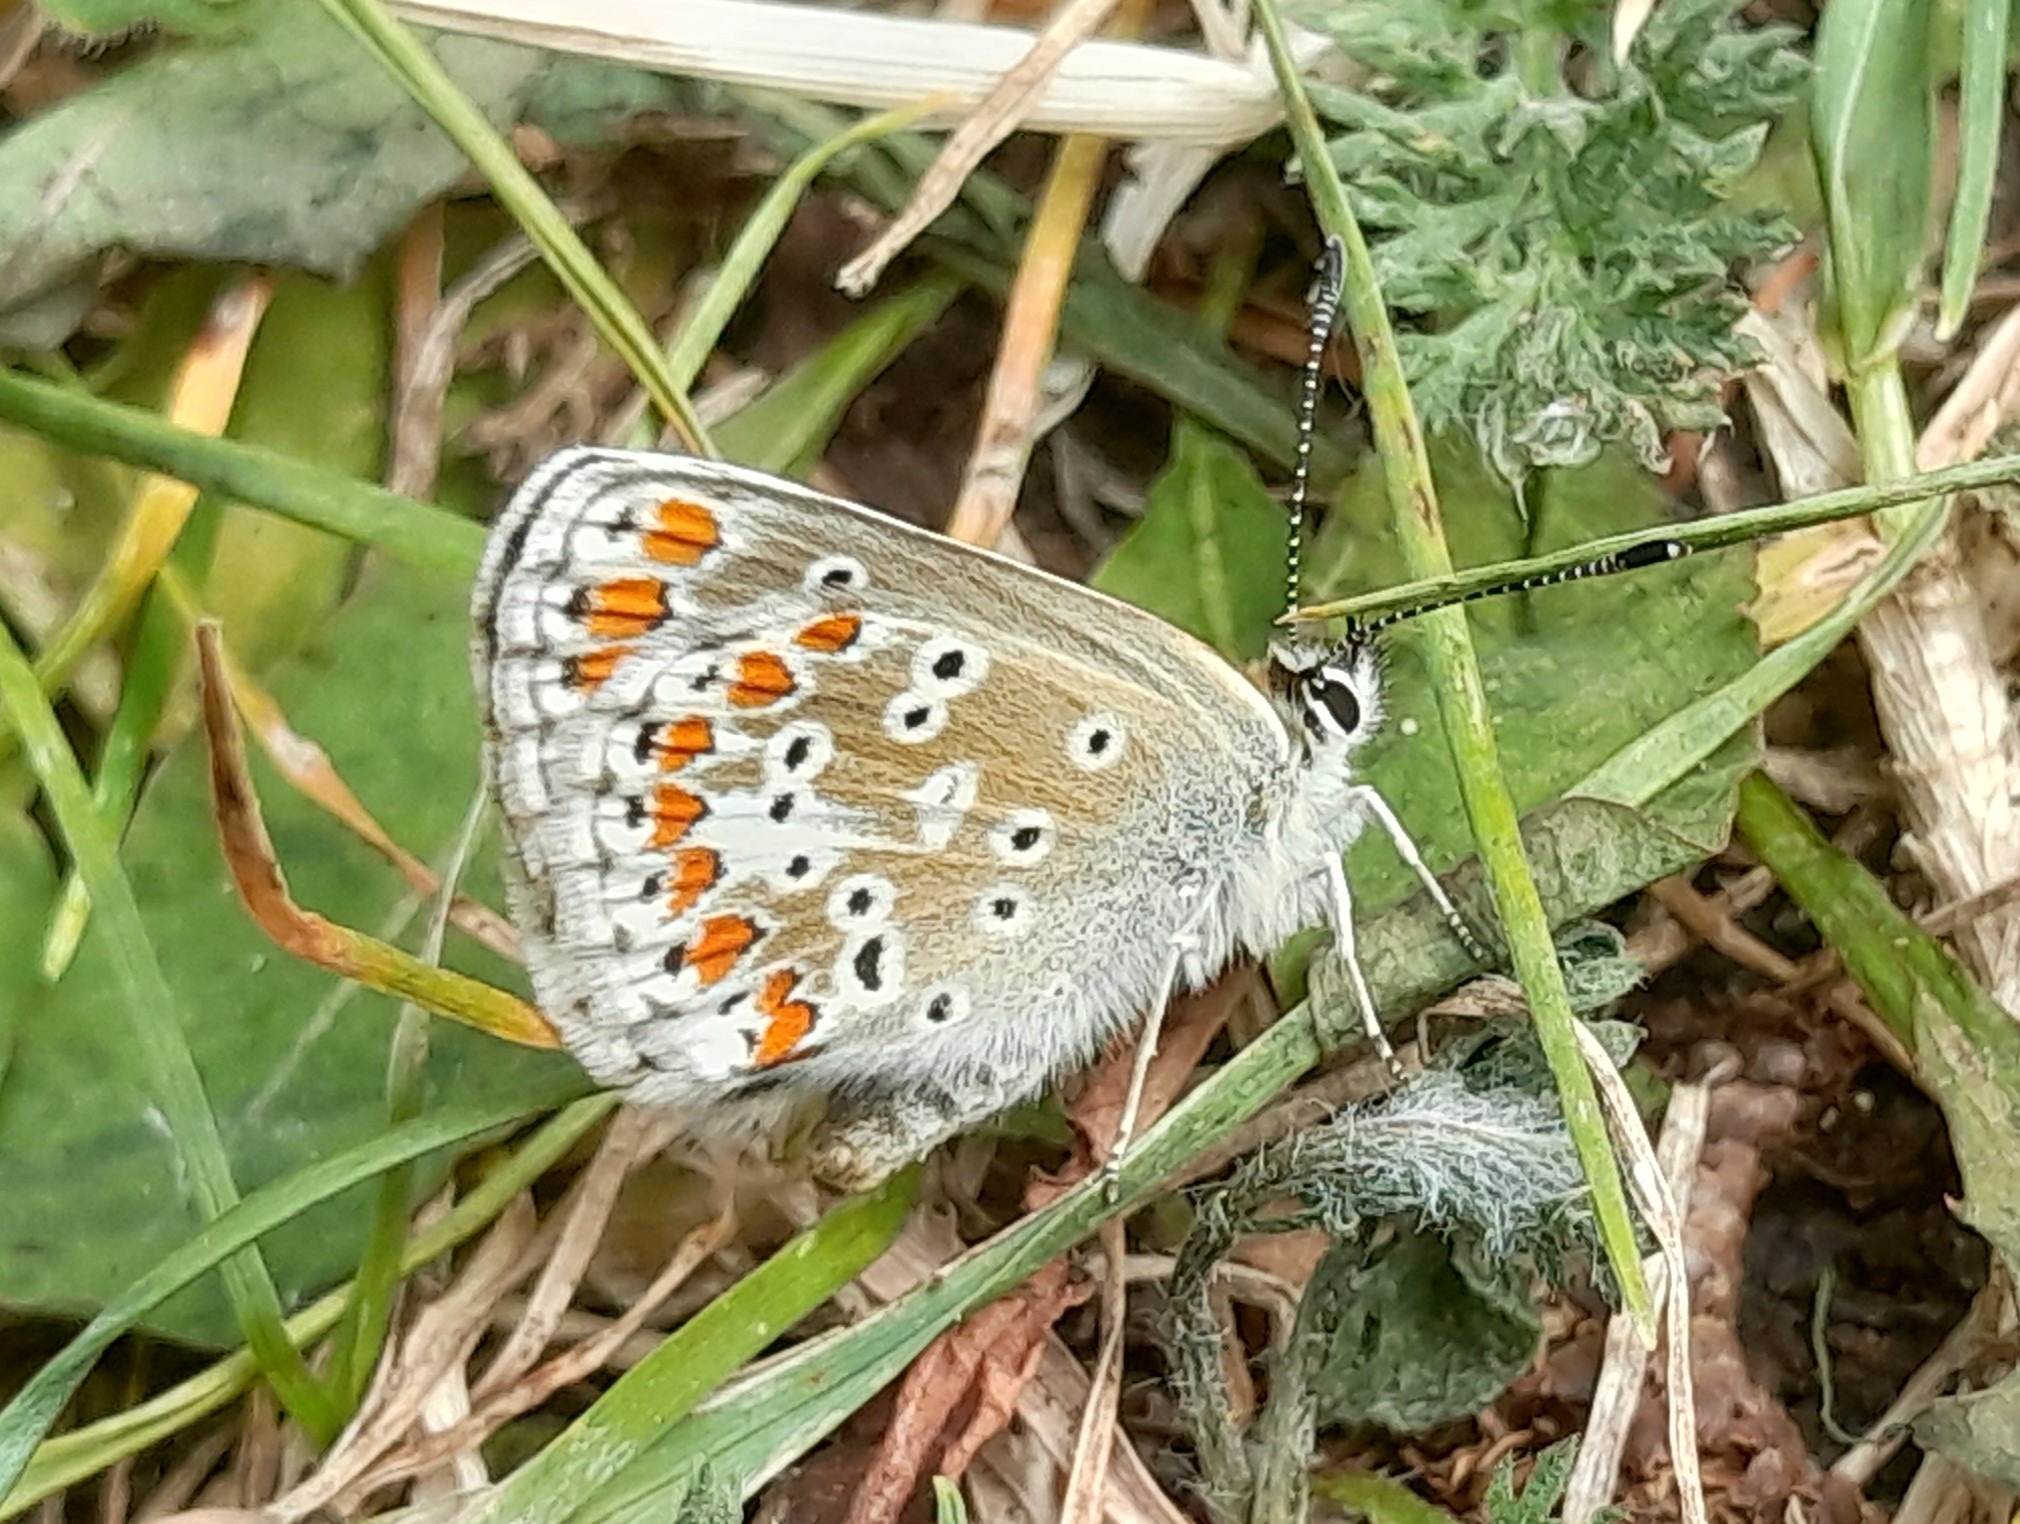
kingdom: Animalia
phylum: Arthropoda
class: Insecta
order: Lepidoptera
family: Lycaenidae
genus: Aricia
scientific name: Aricia agestis
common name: Rødplettet blåfugl
